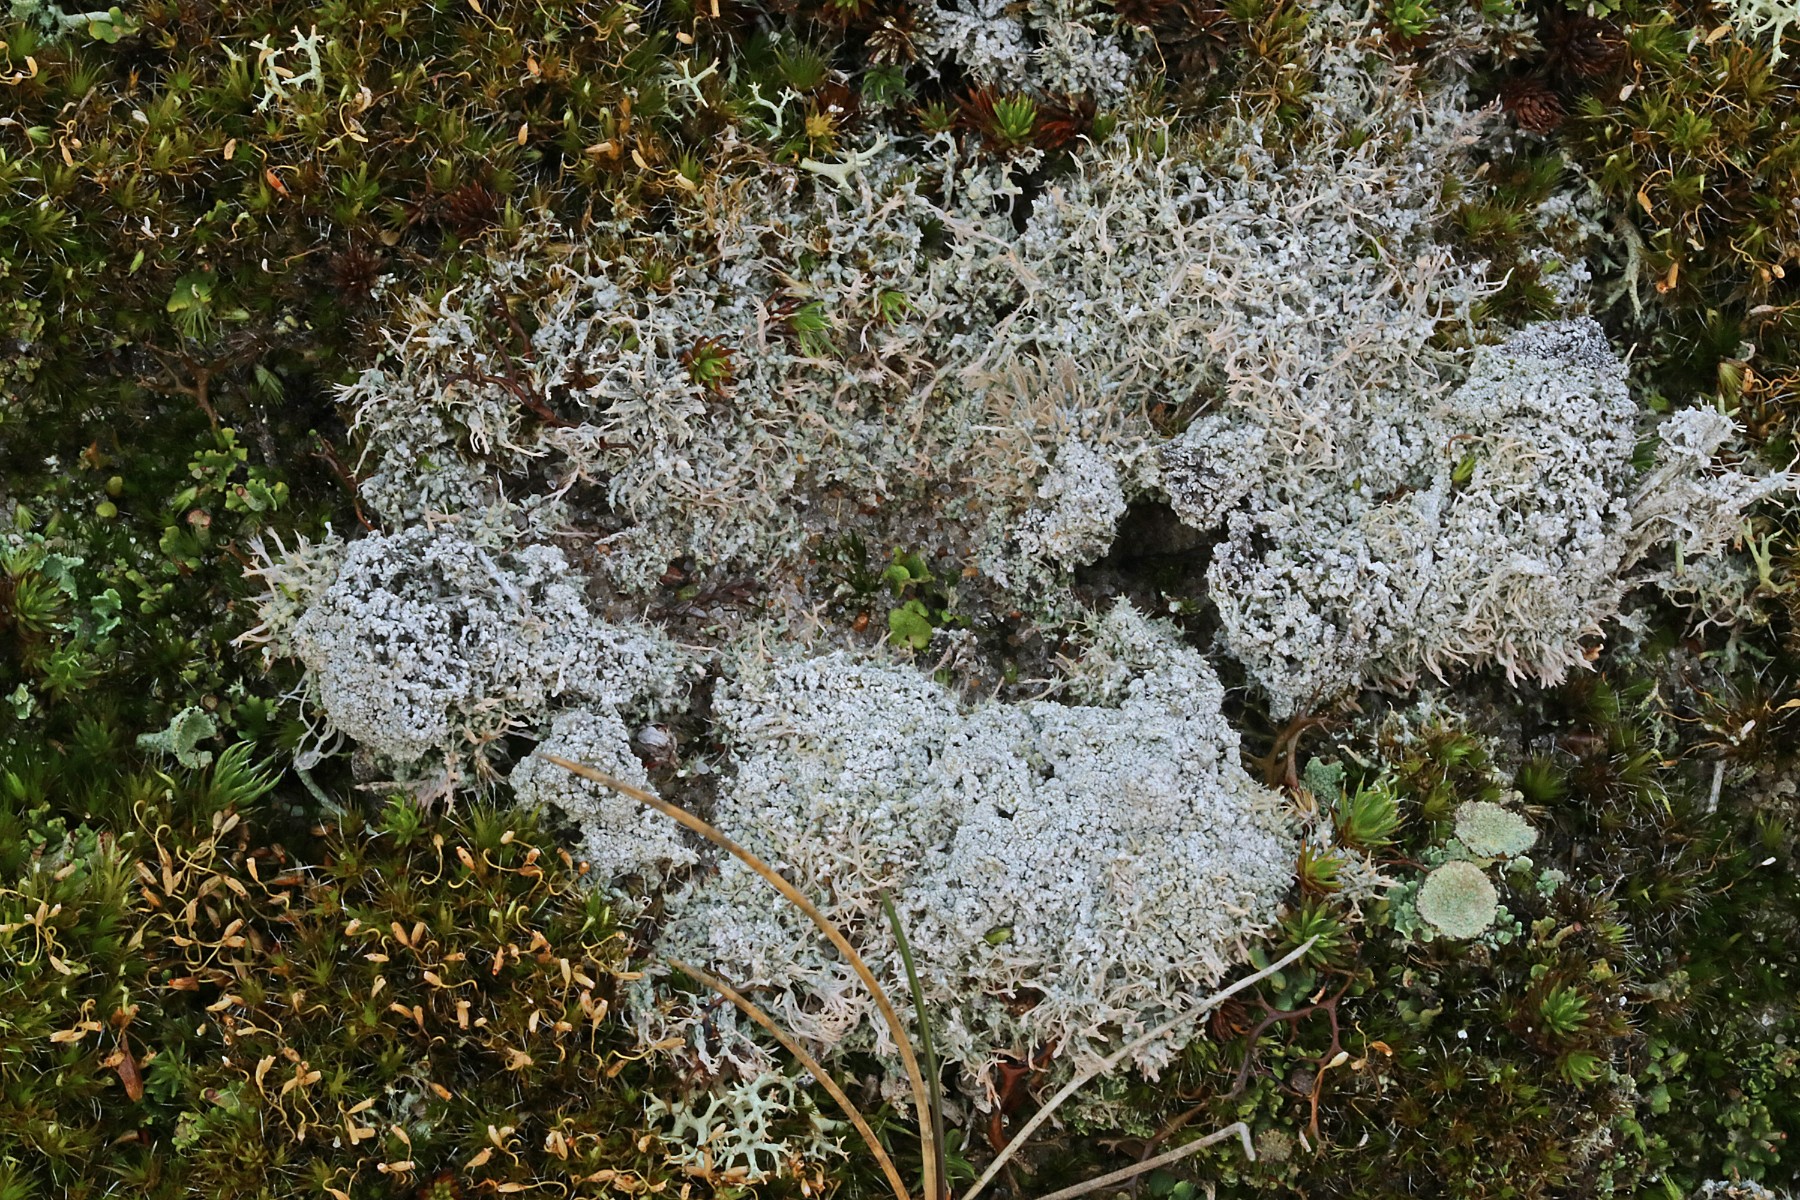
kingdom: Fungi
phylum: Ascomycota
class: Lecanoromycetes
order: Pertusariales
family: Ochrolechiaceae
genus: Ochrolechia
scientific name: Ochrolechia frigida
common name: fjeld-blegskivelav
